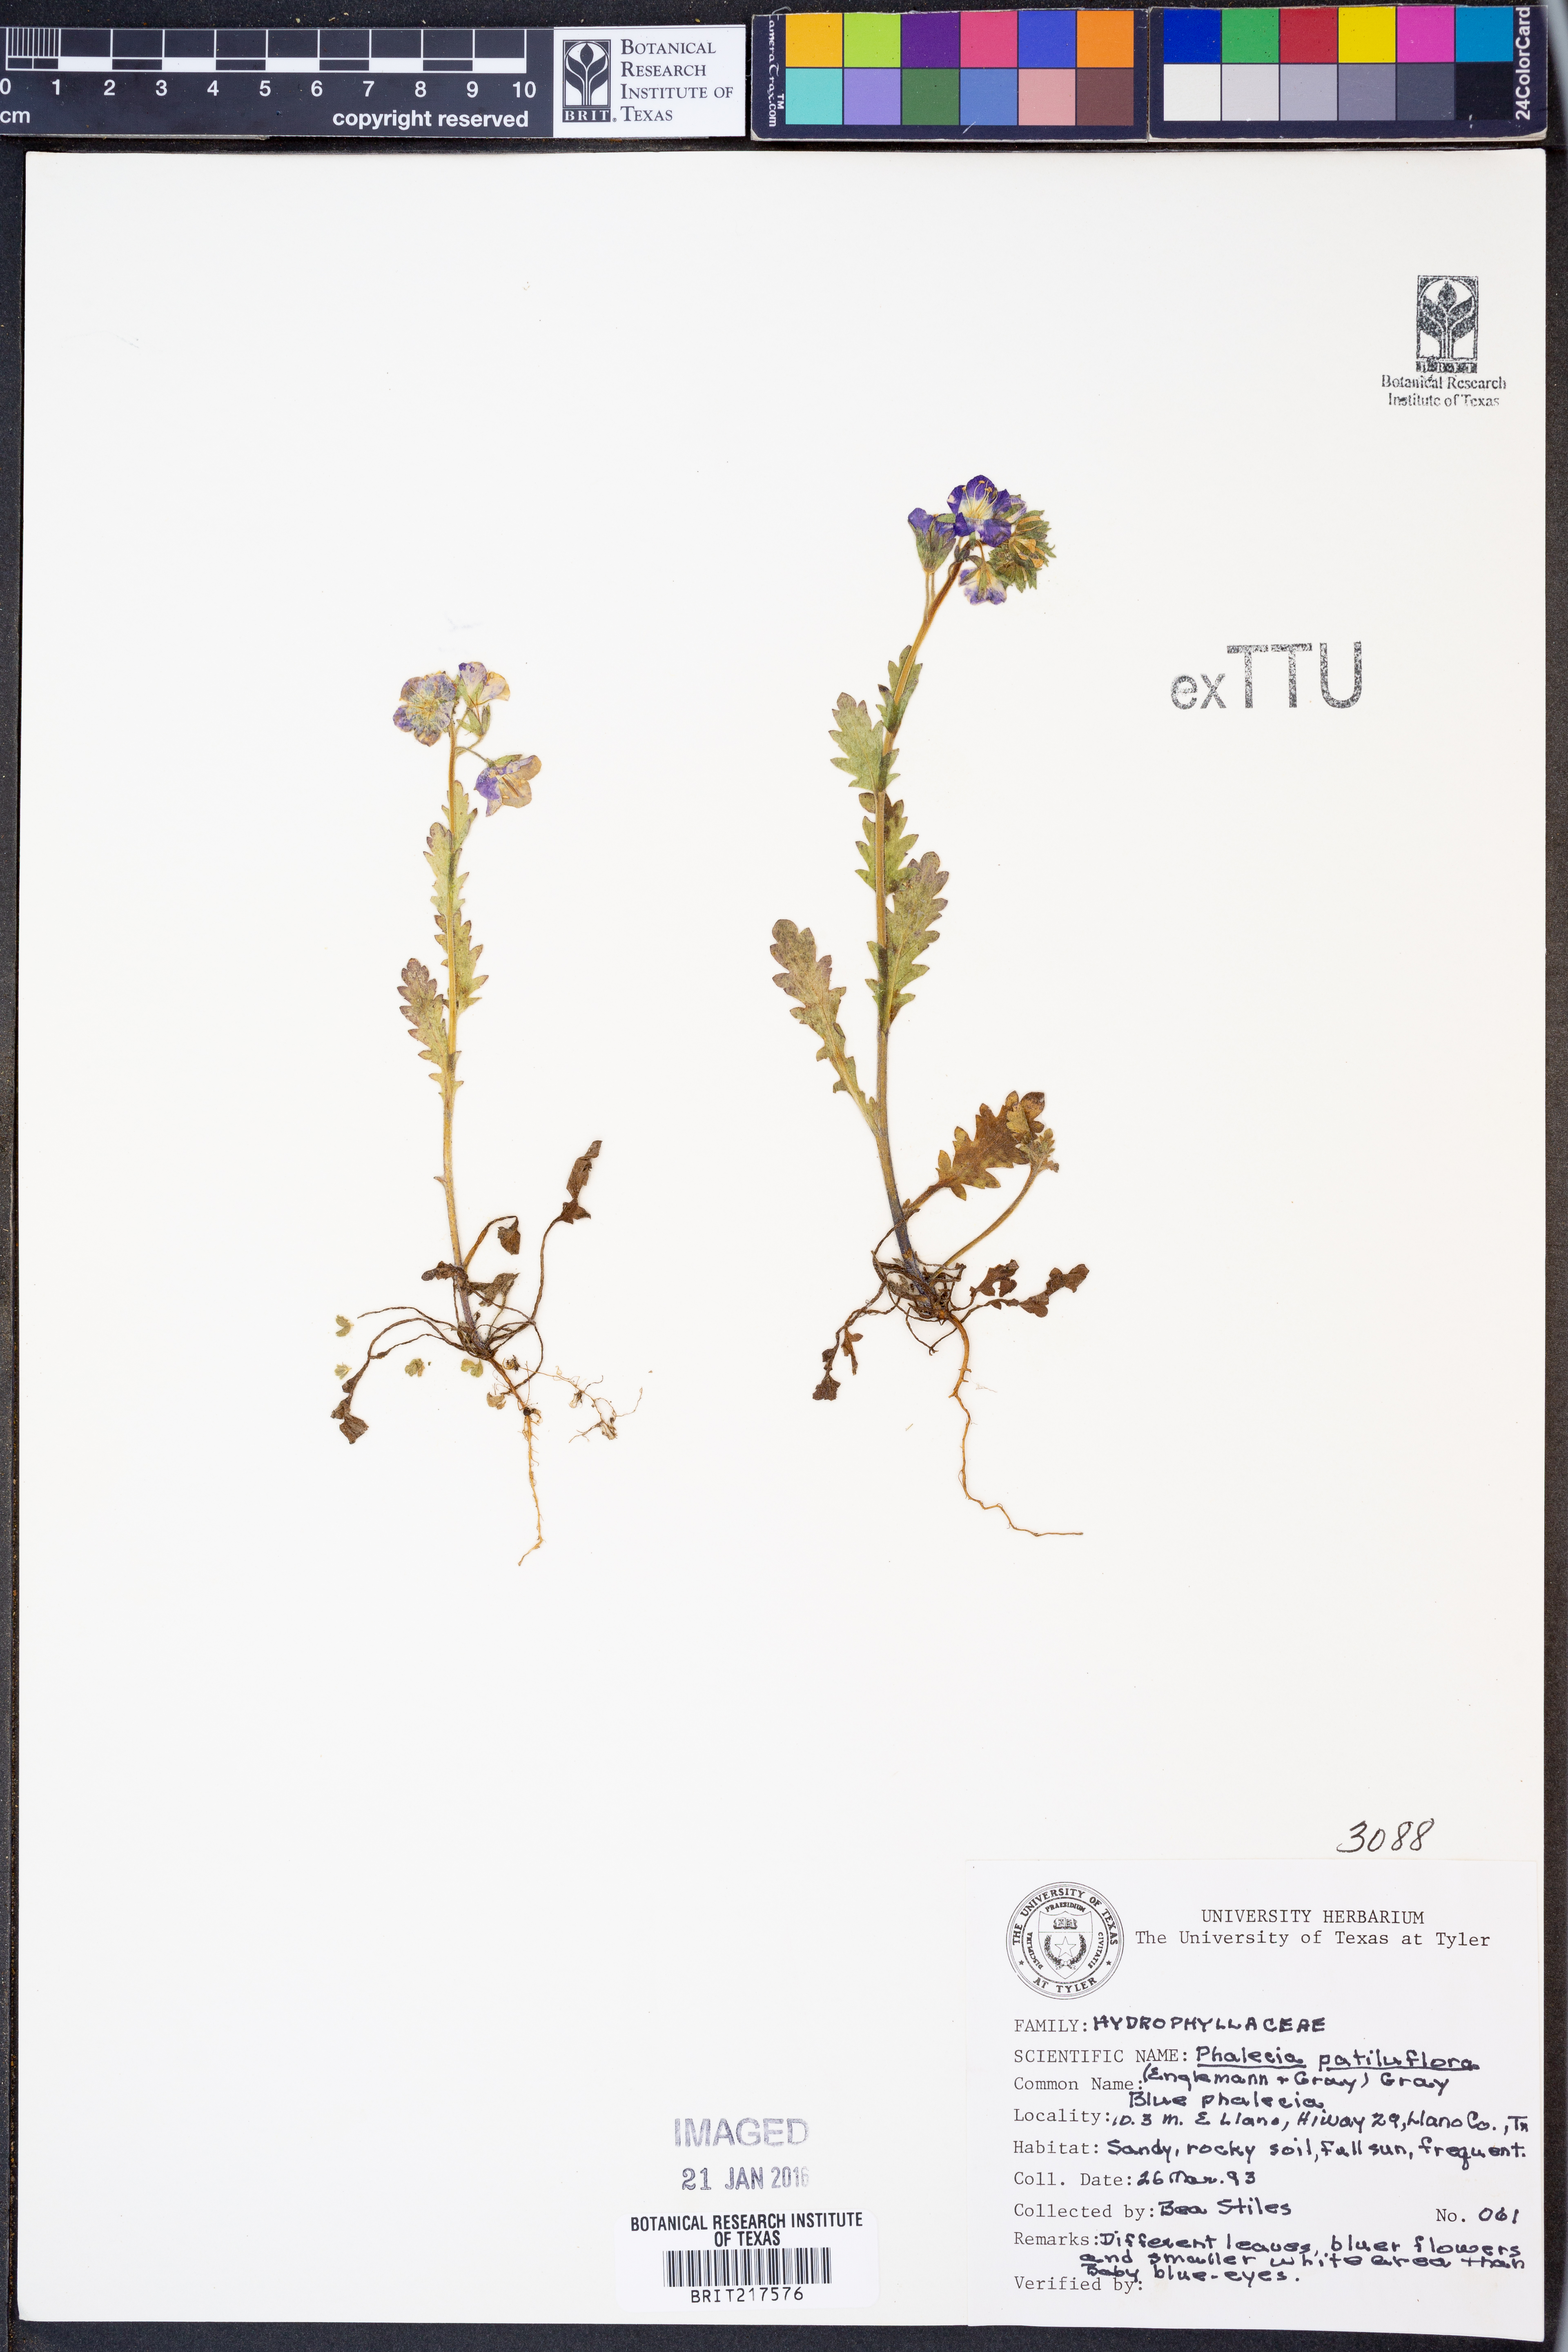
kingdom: Plantae
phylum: Tracheophyta
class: Magnoliopsida
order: Boraginales
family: Hydrophyllaceae
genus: Phacelia
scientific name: Phacelia patuliflora
